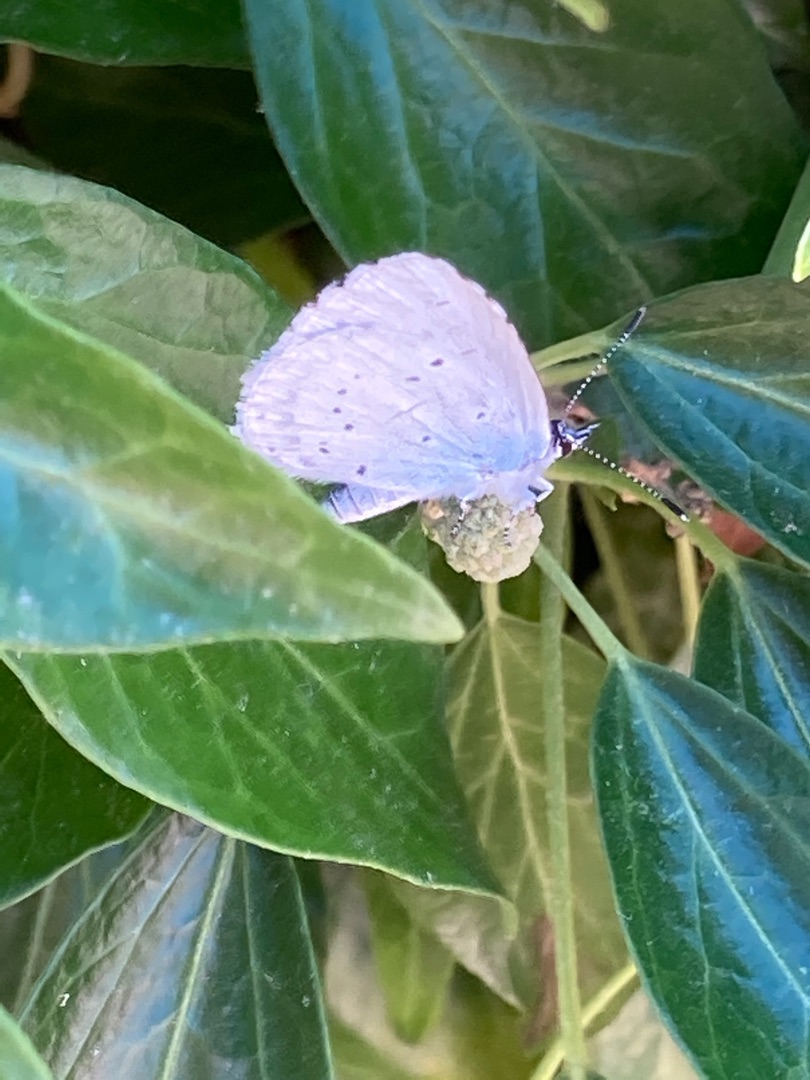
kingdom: Animalia
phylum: Arthropoda
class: Insecta
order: Lepidoptera
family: Lycaenidae
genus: Celastrina
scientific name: Celastrina argiolus
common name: Skovblåfugl
